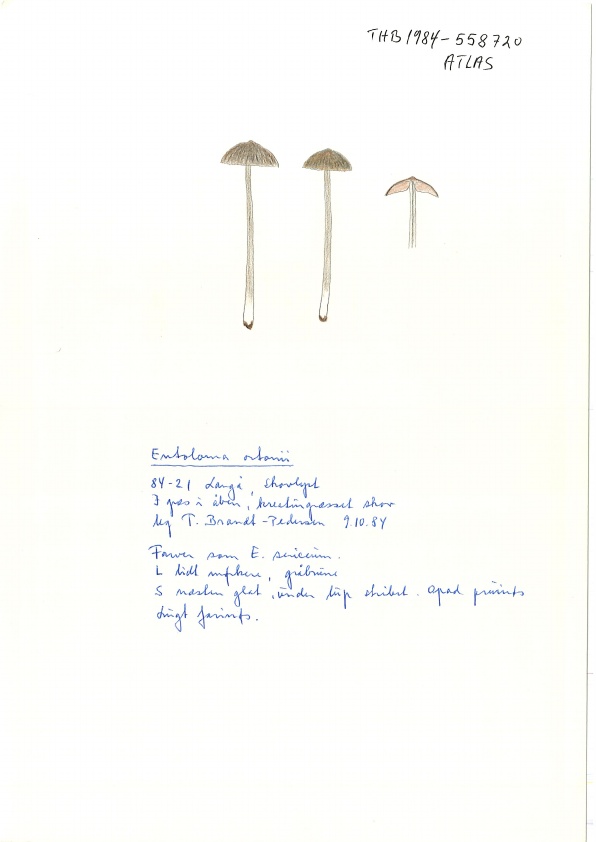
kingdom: Fungi
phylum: Basidiomycota
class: Agaricomycetes
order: Agaricales
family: Entolomataceae
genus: Entoloma
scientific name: Entoloma ortonii
